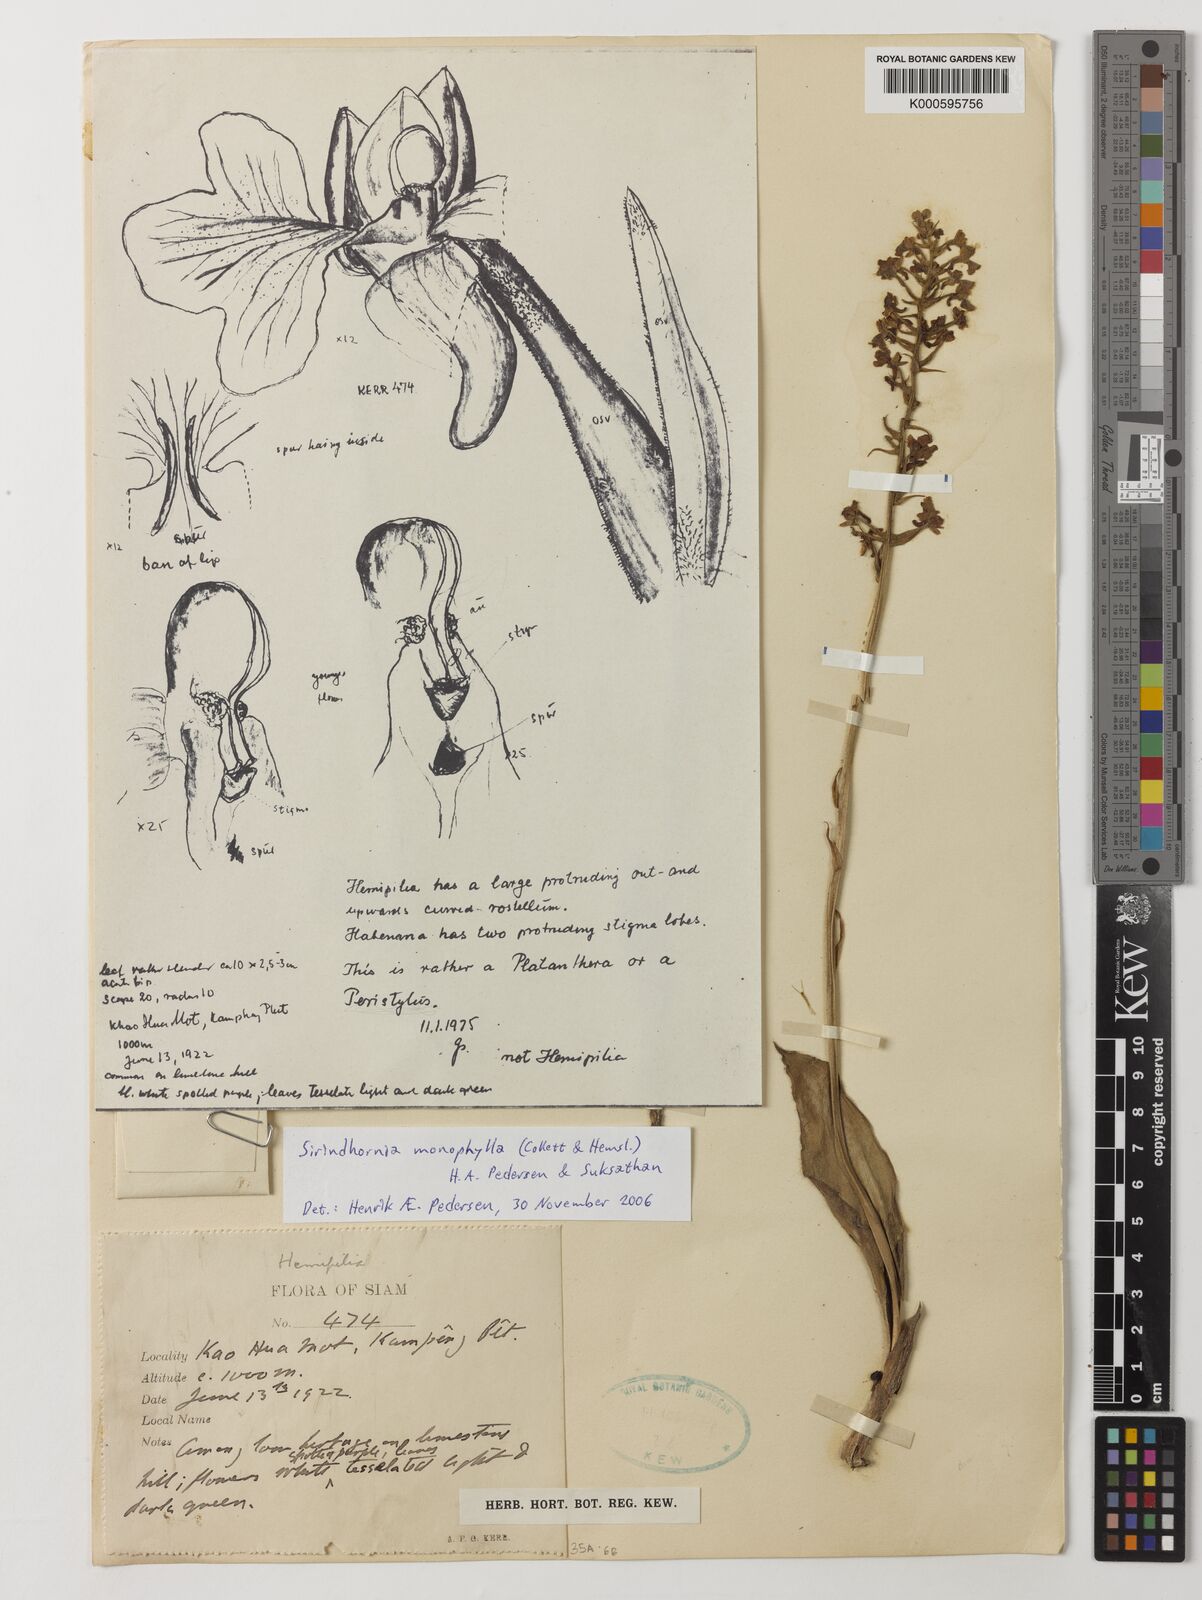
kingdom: Plantae
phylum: Tracheophyta
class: Liliopsida
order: Asparagales
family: Orchidaceae
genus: Sirindhornia
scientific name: Sirindhornia monophylla
